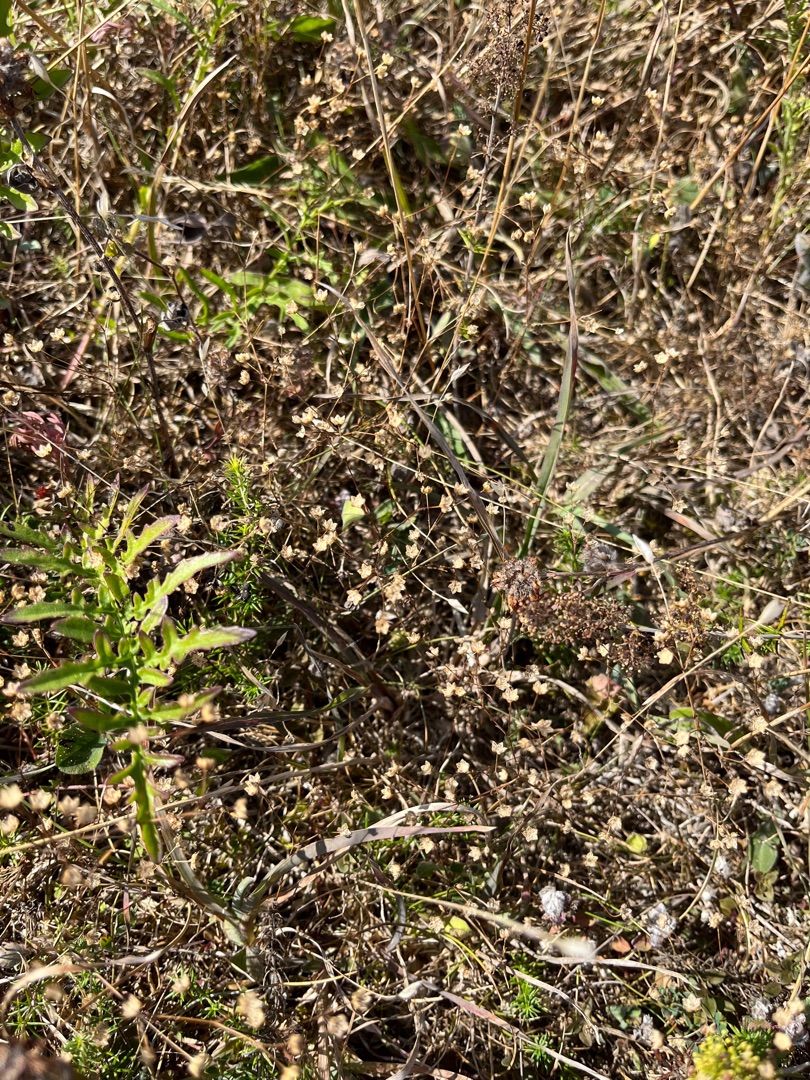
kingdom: Plantae
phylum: Tracheophyta
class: Magnoliopsida
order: Malpighiales
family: Linaceae
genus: Linum
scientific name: Linum catharticum
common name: Vild hør
